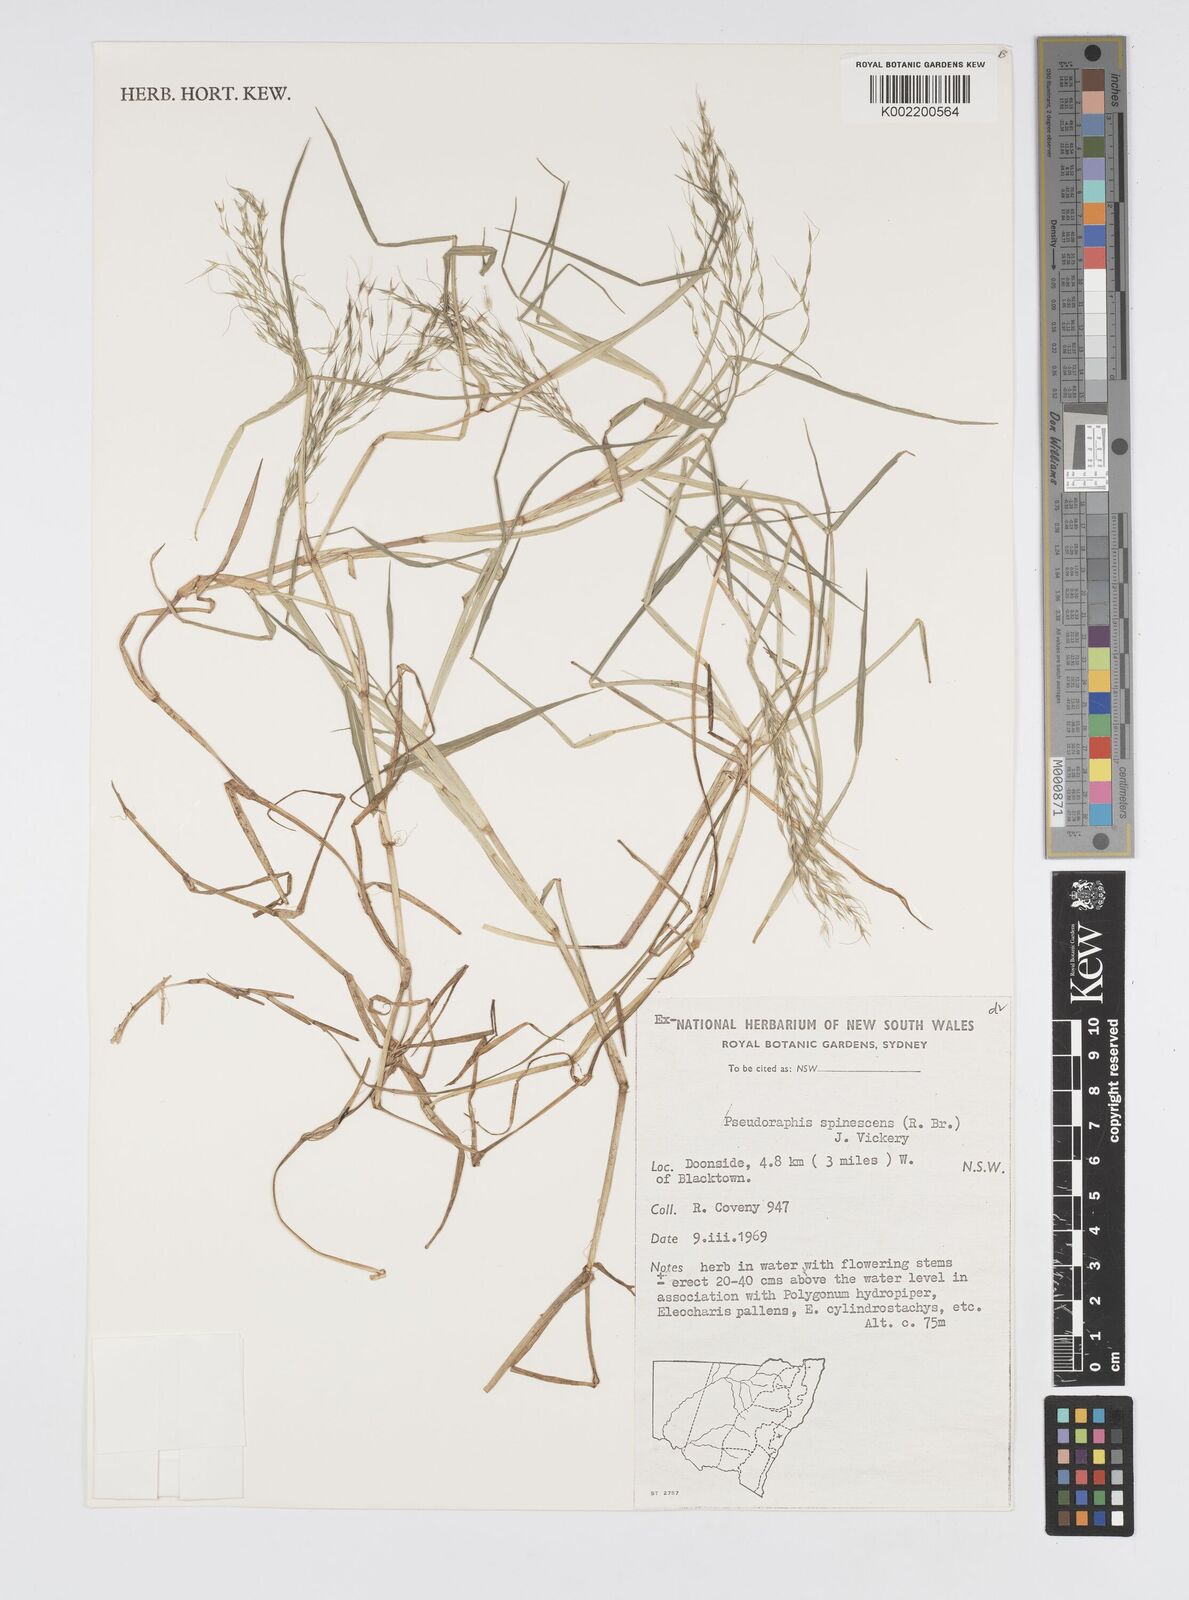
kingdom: Plantae
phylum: Tracheophyta
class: Liliopsida
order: Poales
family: Poaceae
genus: Pseudoraphis
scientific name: Pseudoraphis spinescens
